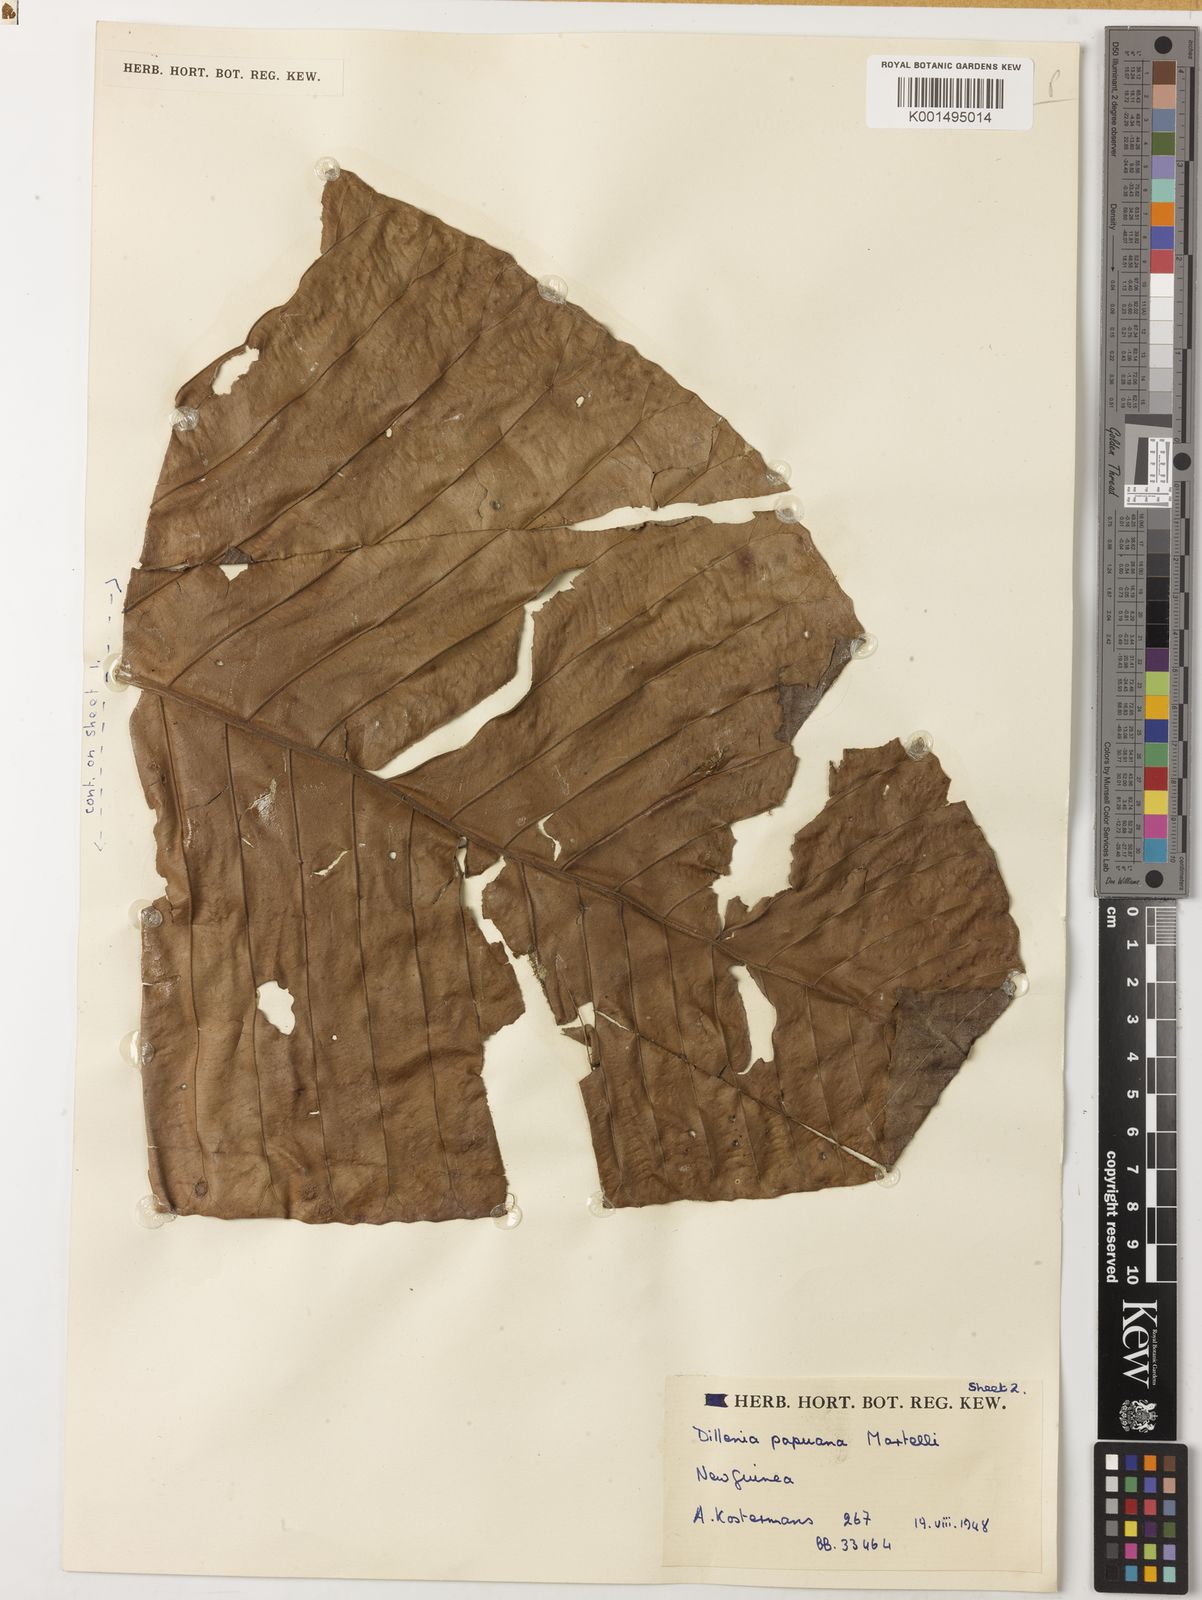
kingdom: Plantae
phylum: Tracheophyta
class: Magnoliopsida
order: Dilleniales
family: Dilleniaceae
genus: Dillenia
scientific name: Dillenia papuana
